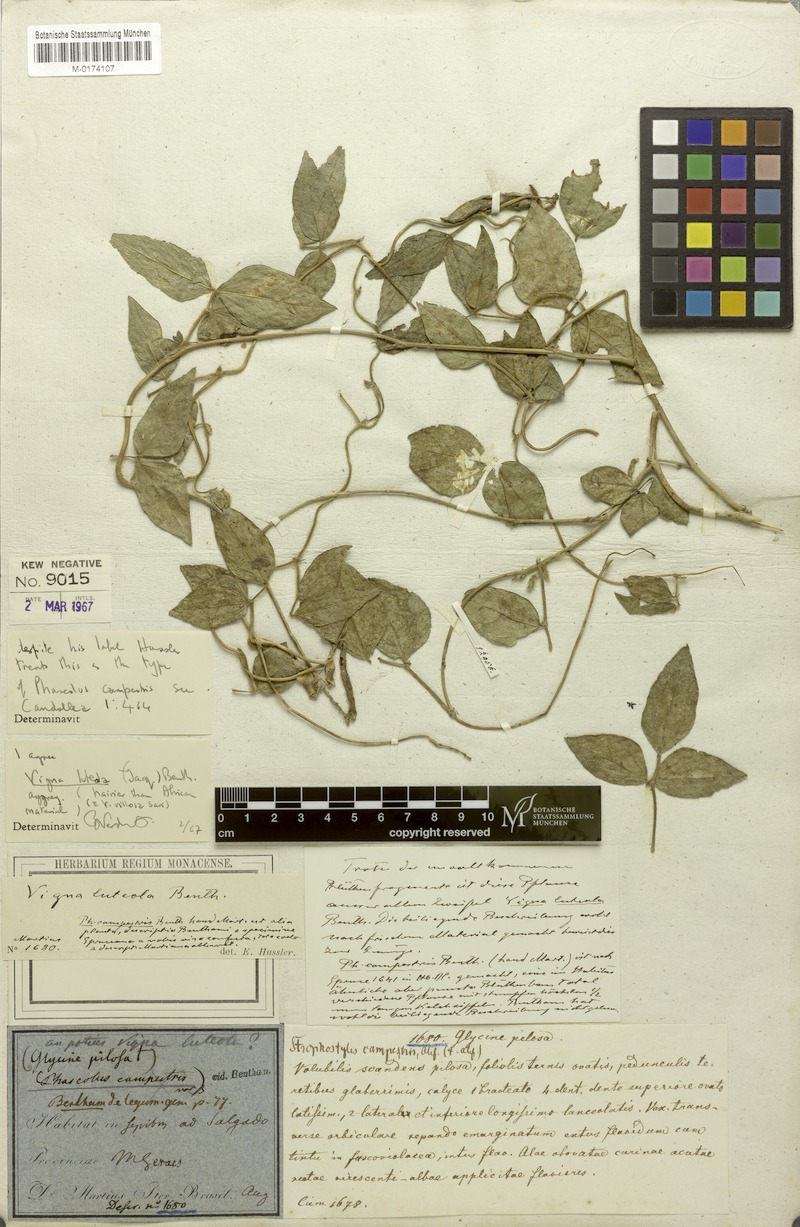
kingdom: Plantae
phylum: Tracheophyta
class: Magnoliopsida
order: Fabales
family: Fabaceae
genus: Vigna
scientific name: Vigna luteola
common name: Hairypod cowpea
